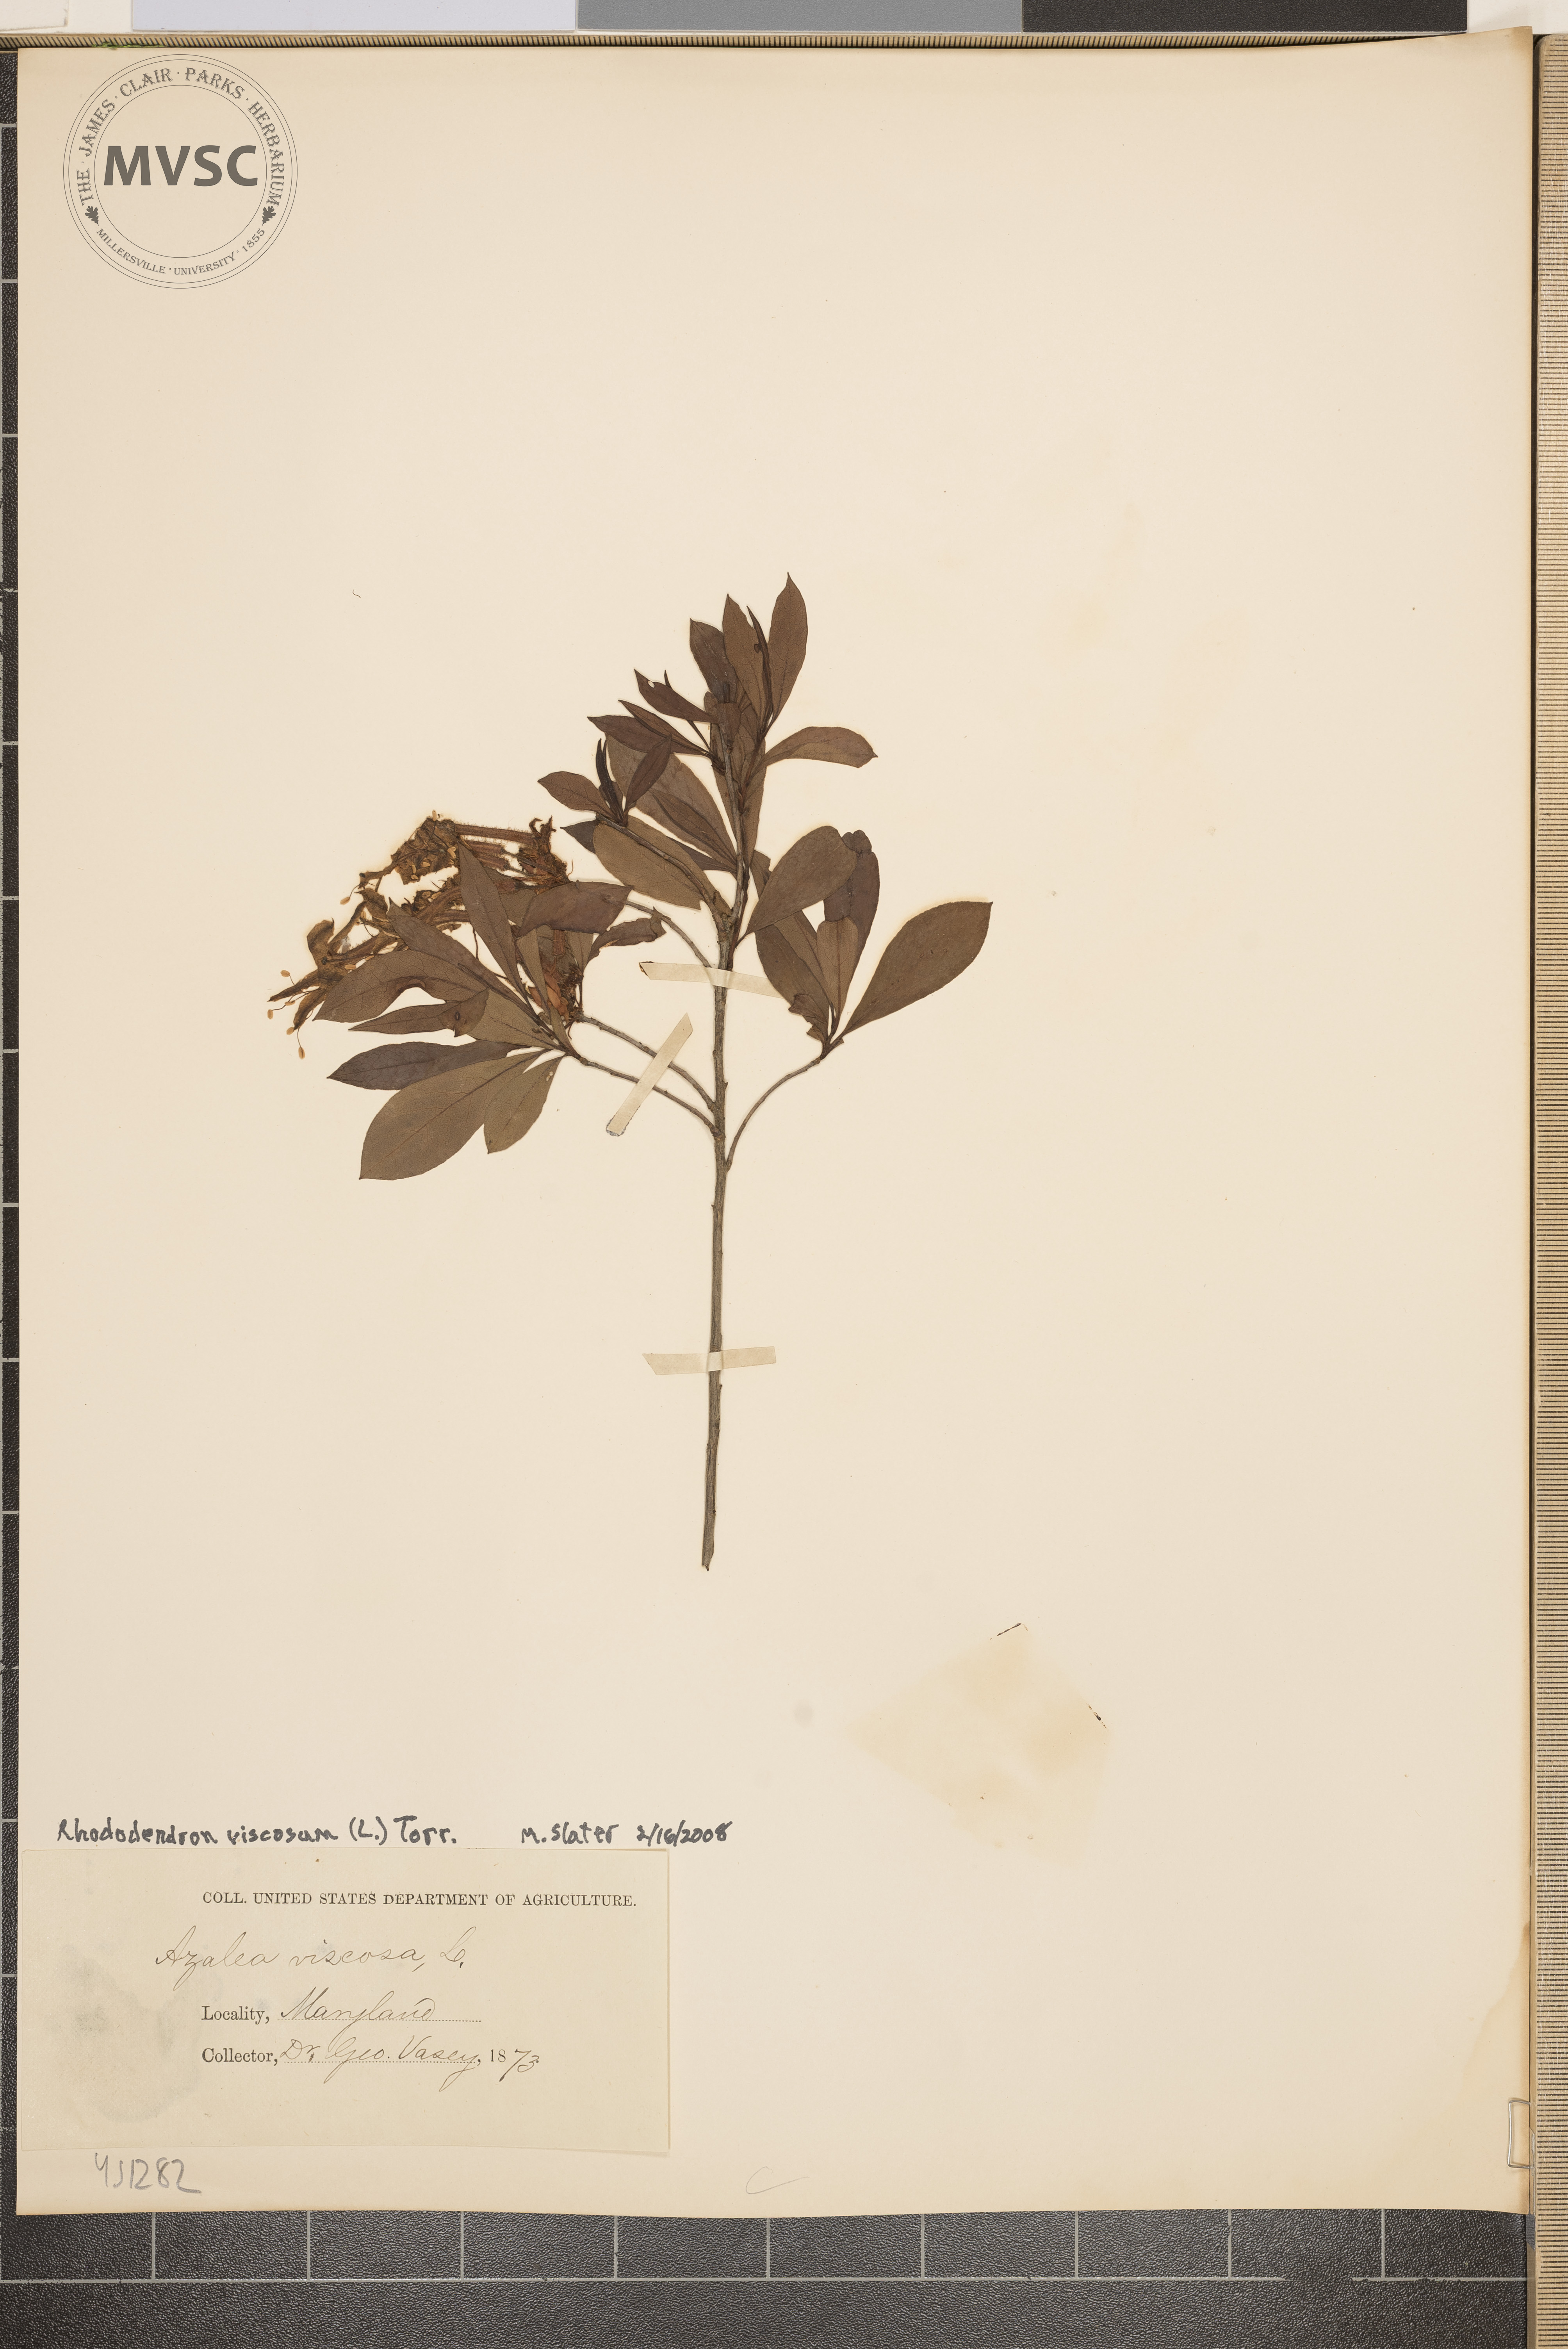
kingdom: Plantae
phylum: Tracheophyta
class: Magnoliopsida
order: Ericales
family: Ericaceae
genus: Rhododendron
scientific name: Rhododendron viscosum
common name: Clammy azalea
